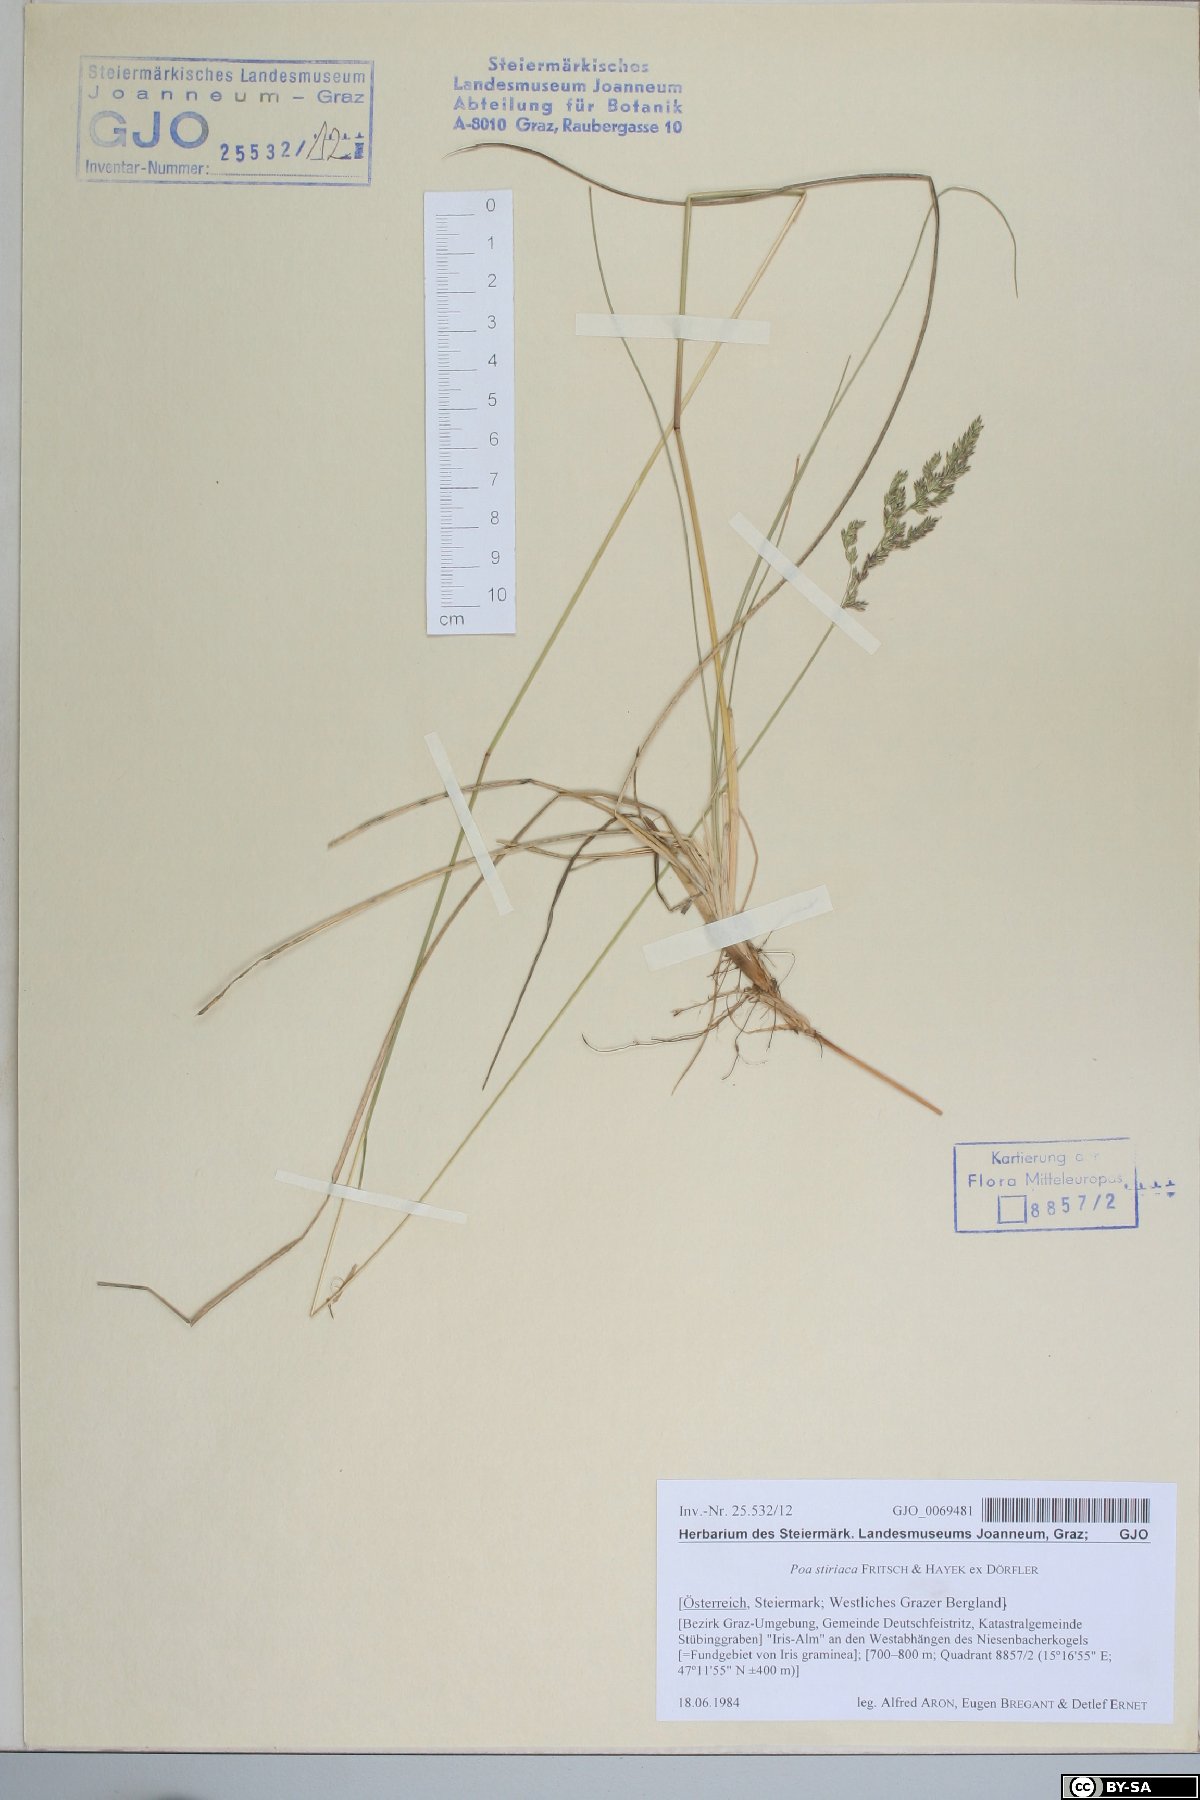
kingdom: Plantae
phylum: Tracheophyta
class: Liliopsida
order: Poales
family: Poaceae
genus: Poa
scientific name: Poa stiriaca
